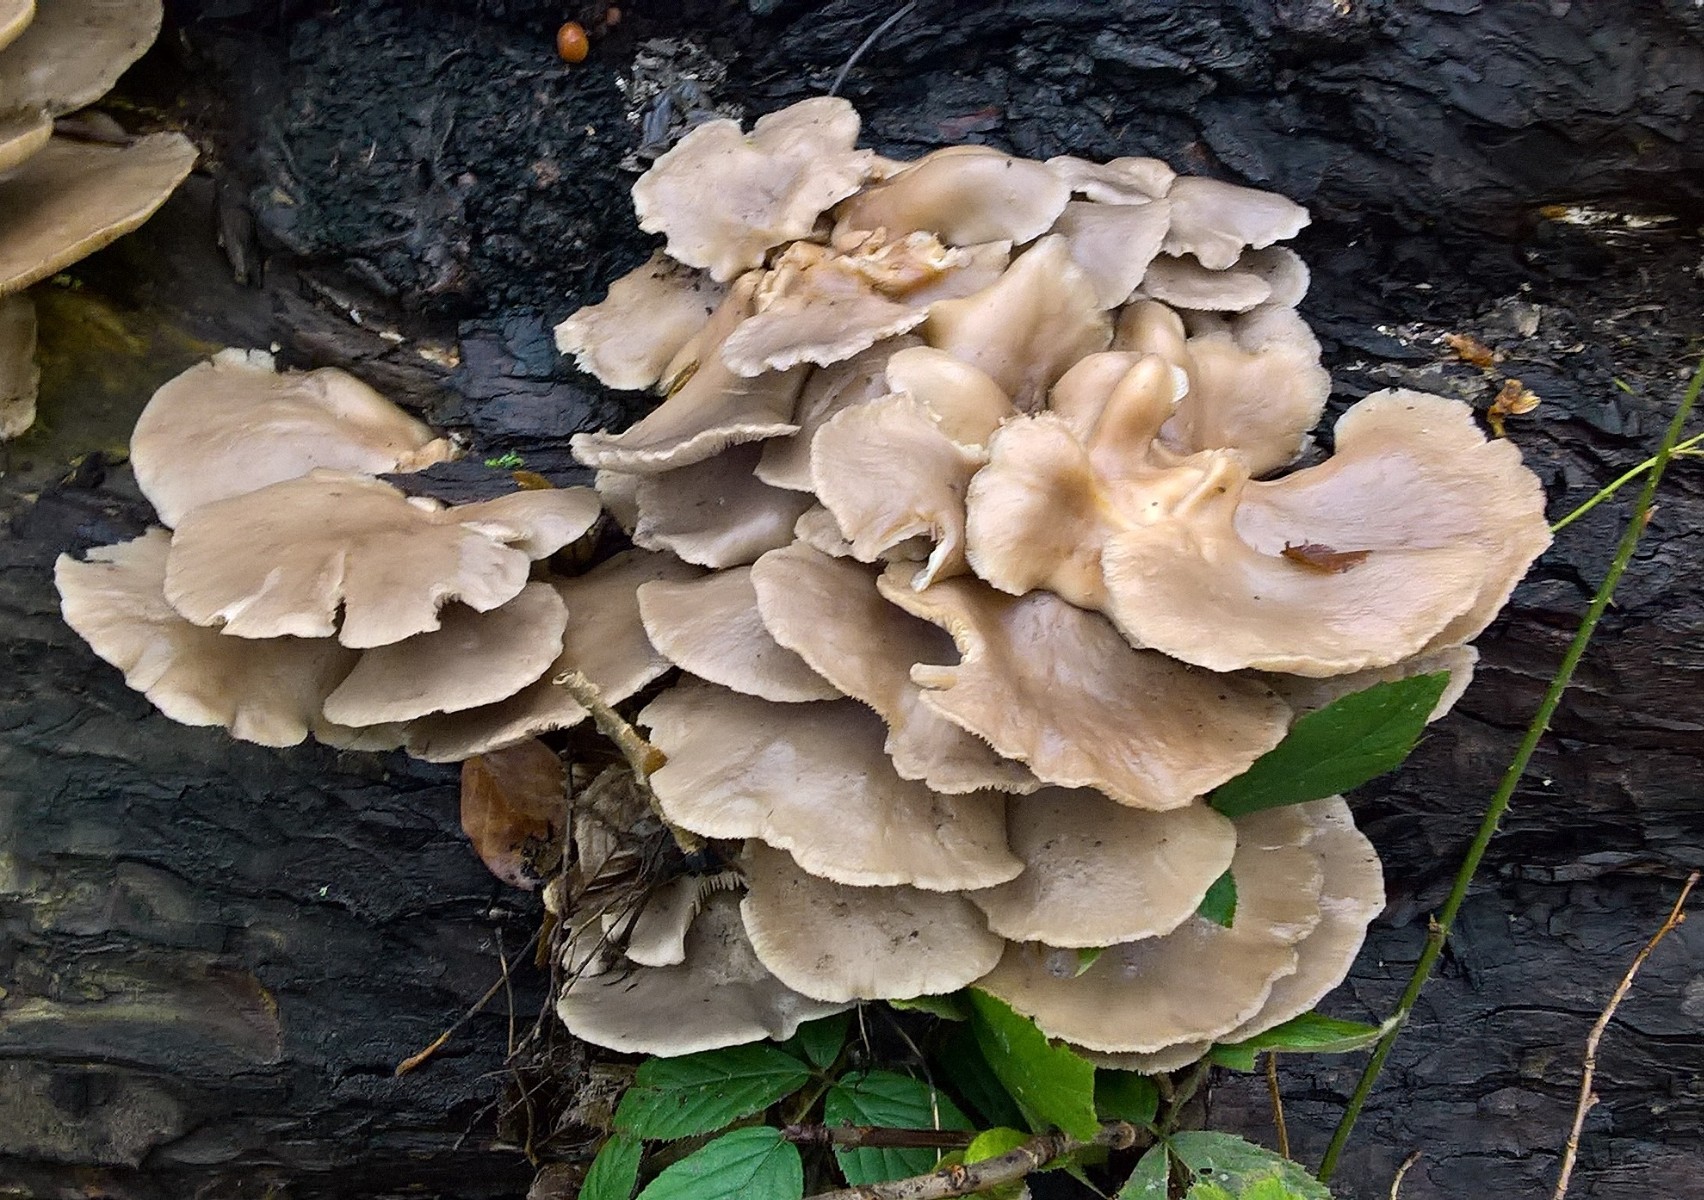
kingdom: Fungi
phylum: Basidiomycota
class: Agaricomycetes
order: Agaricales
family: Pleurotaceae
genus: Pleurotus
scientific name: Pleurotus ostreatus
